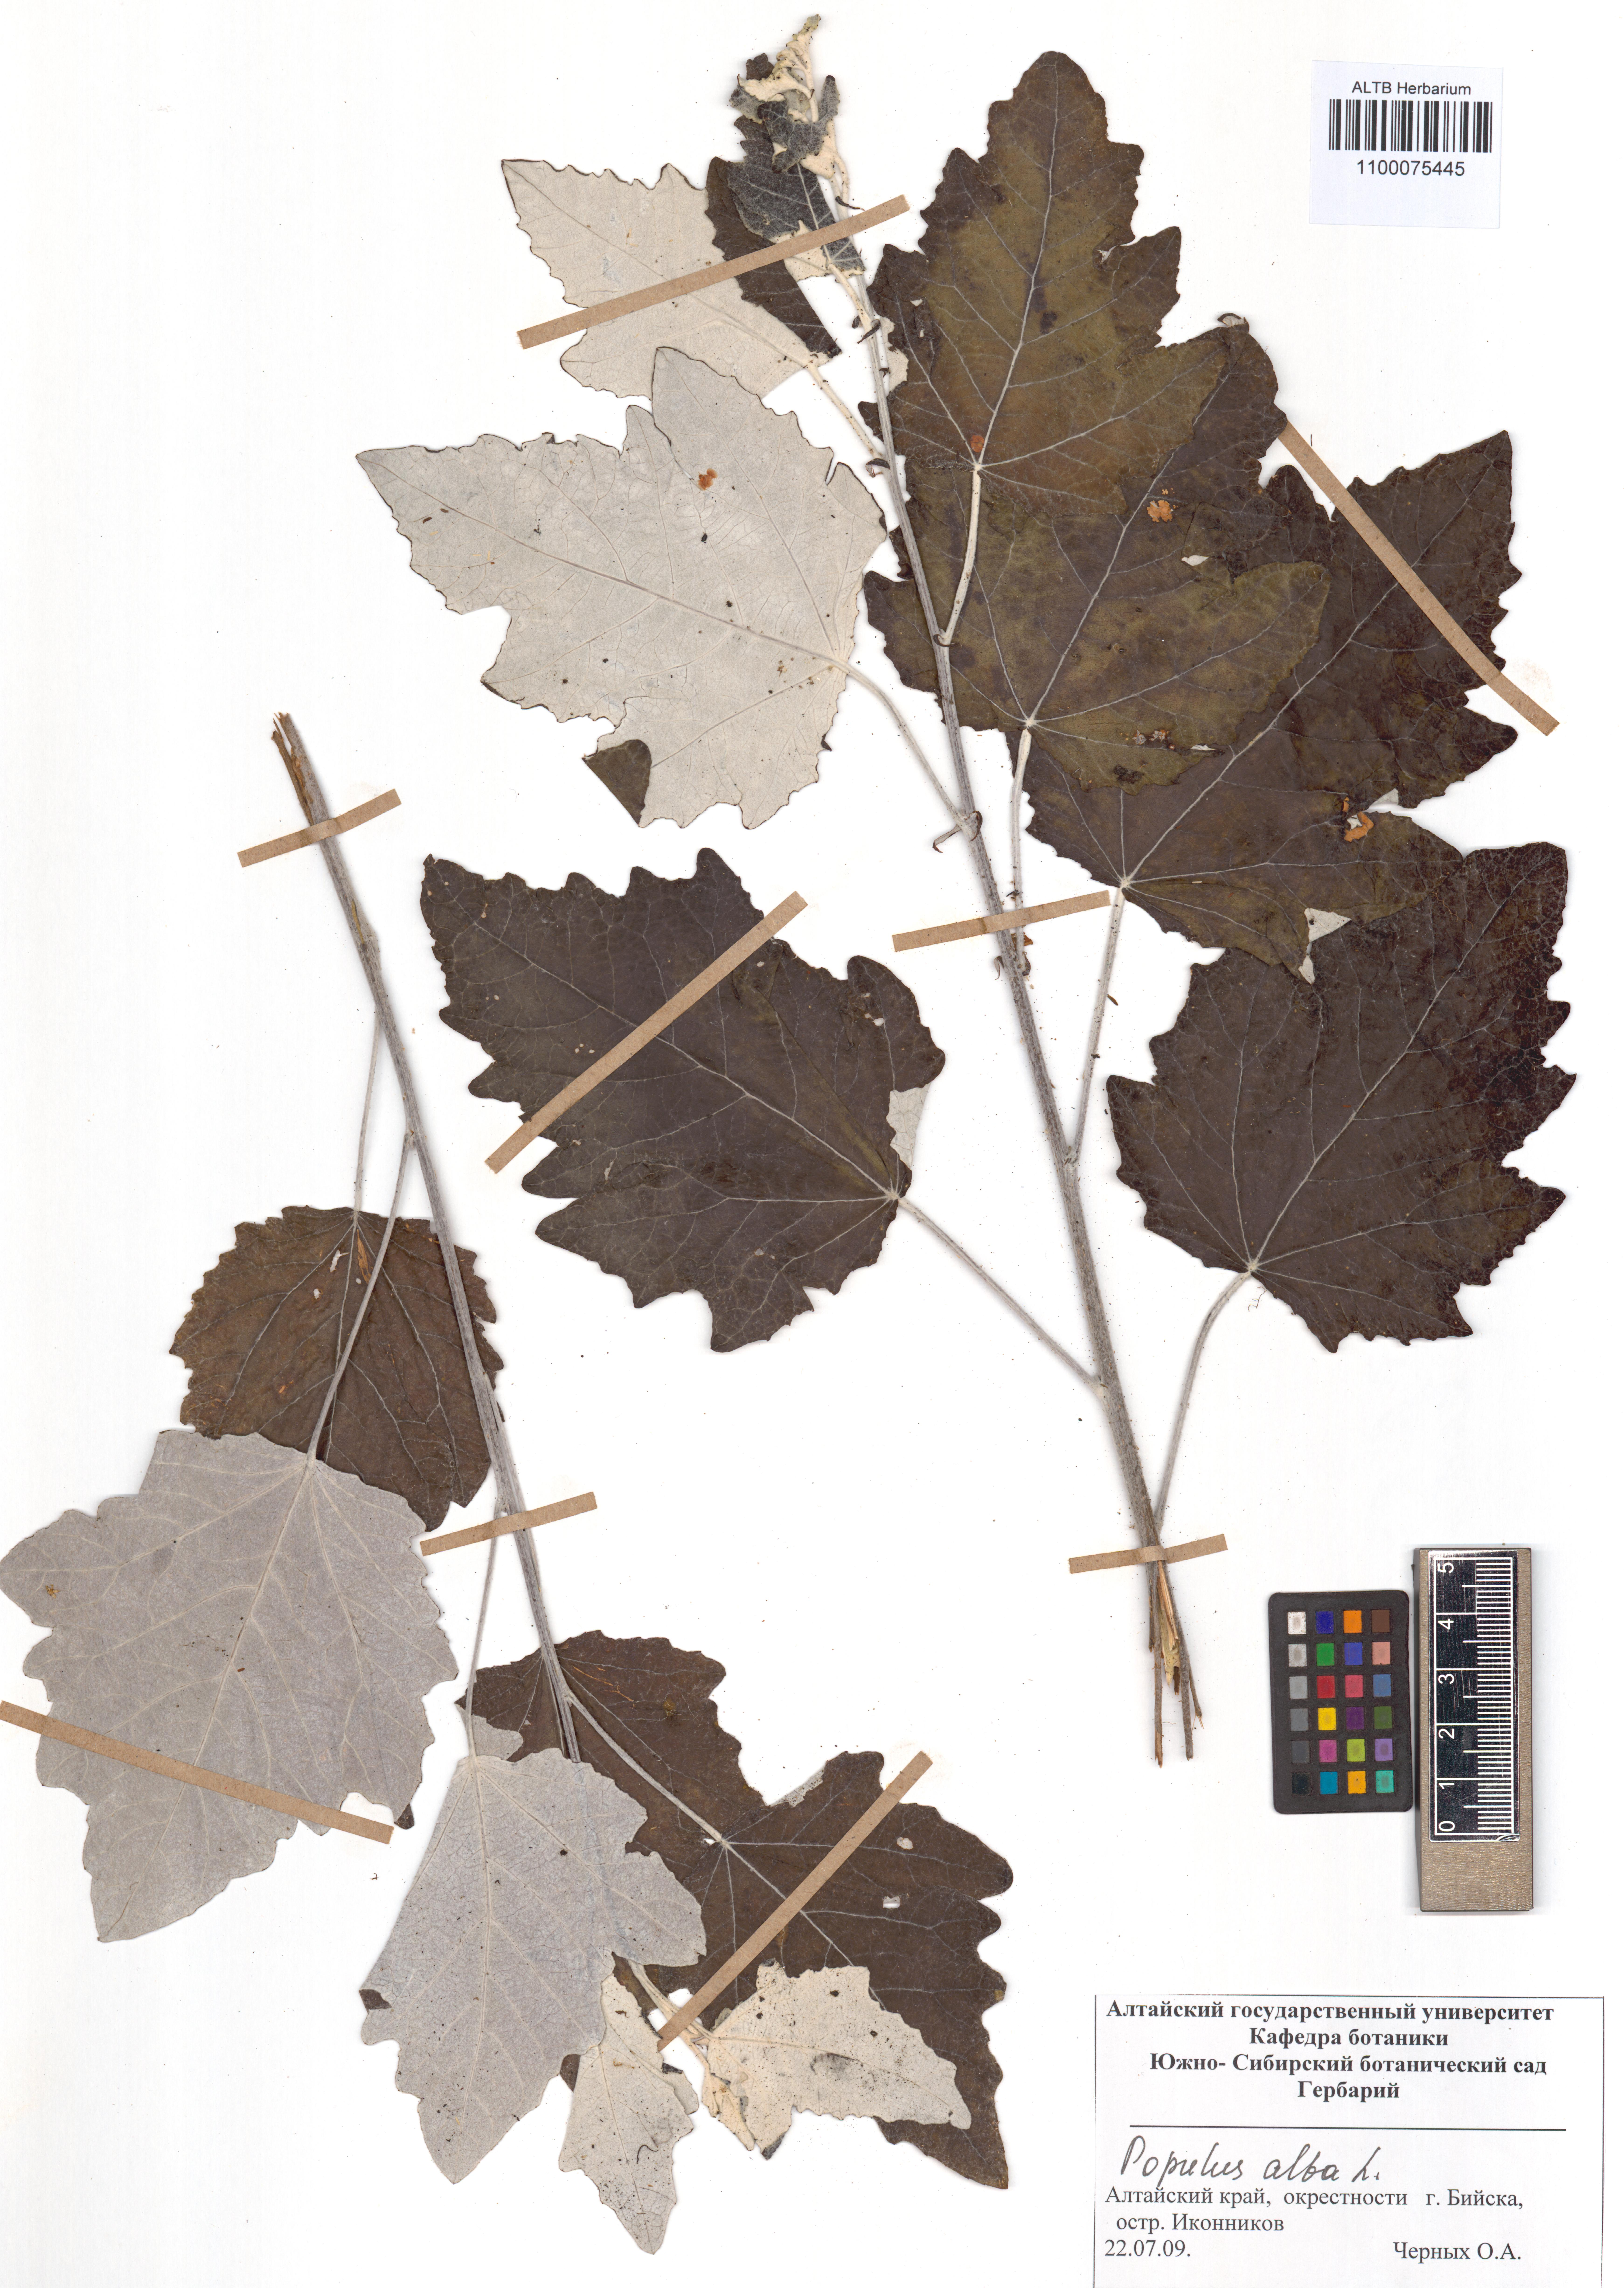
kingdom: Plantae
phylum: Tracheophyta
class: Magnoliopsida
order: Malpighiales
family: Salicaceae
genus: Populus
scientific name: Populus alba
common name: White poplar
